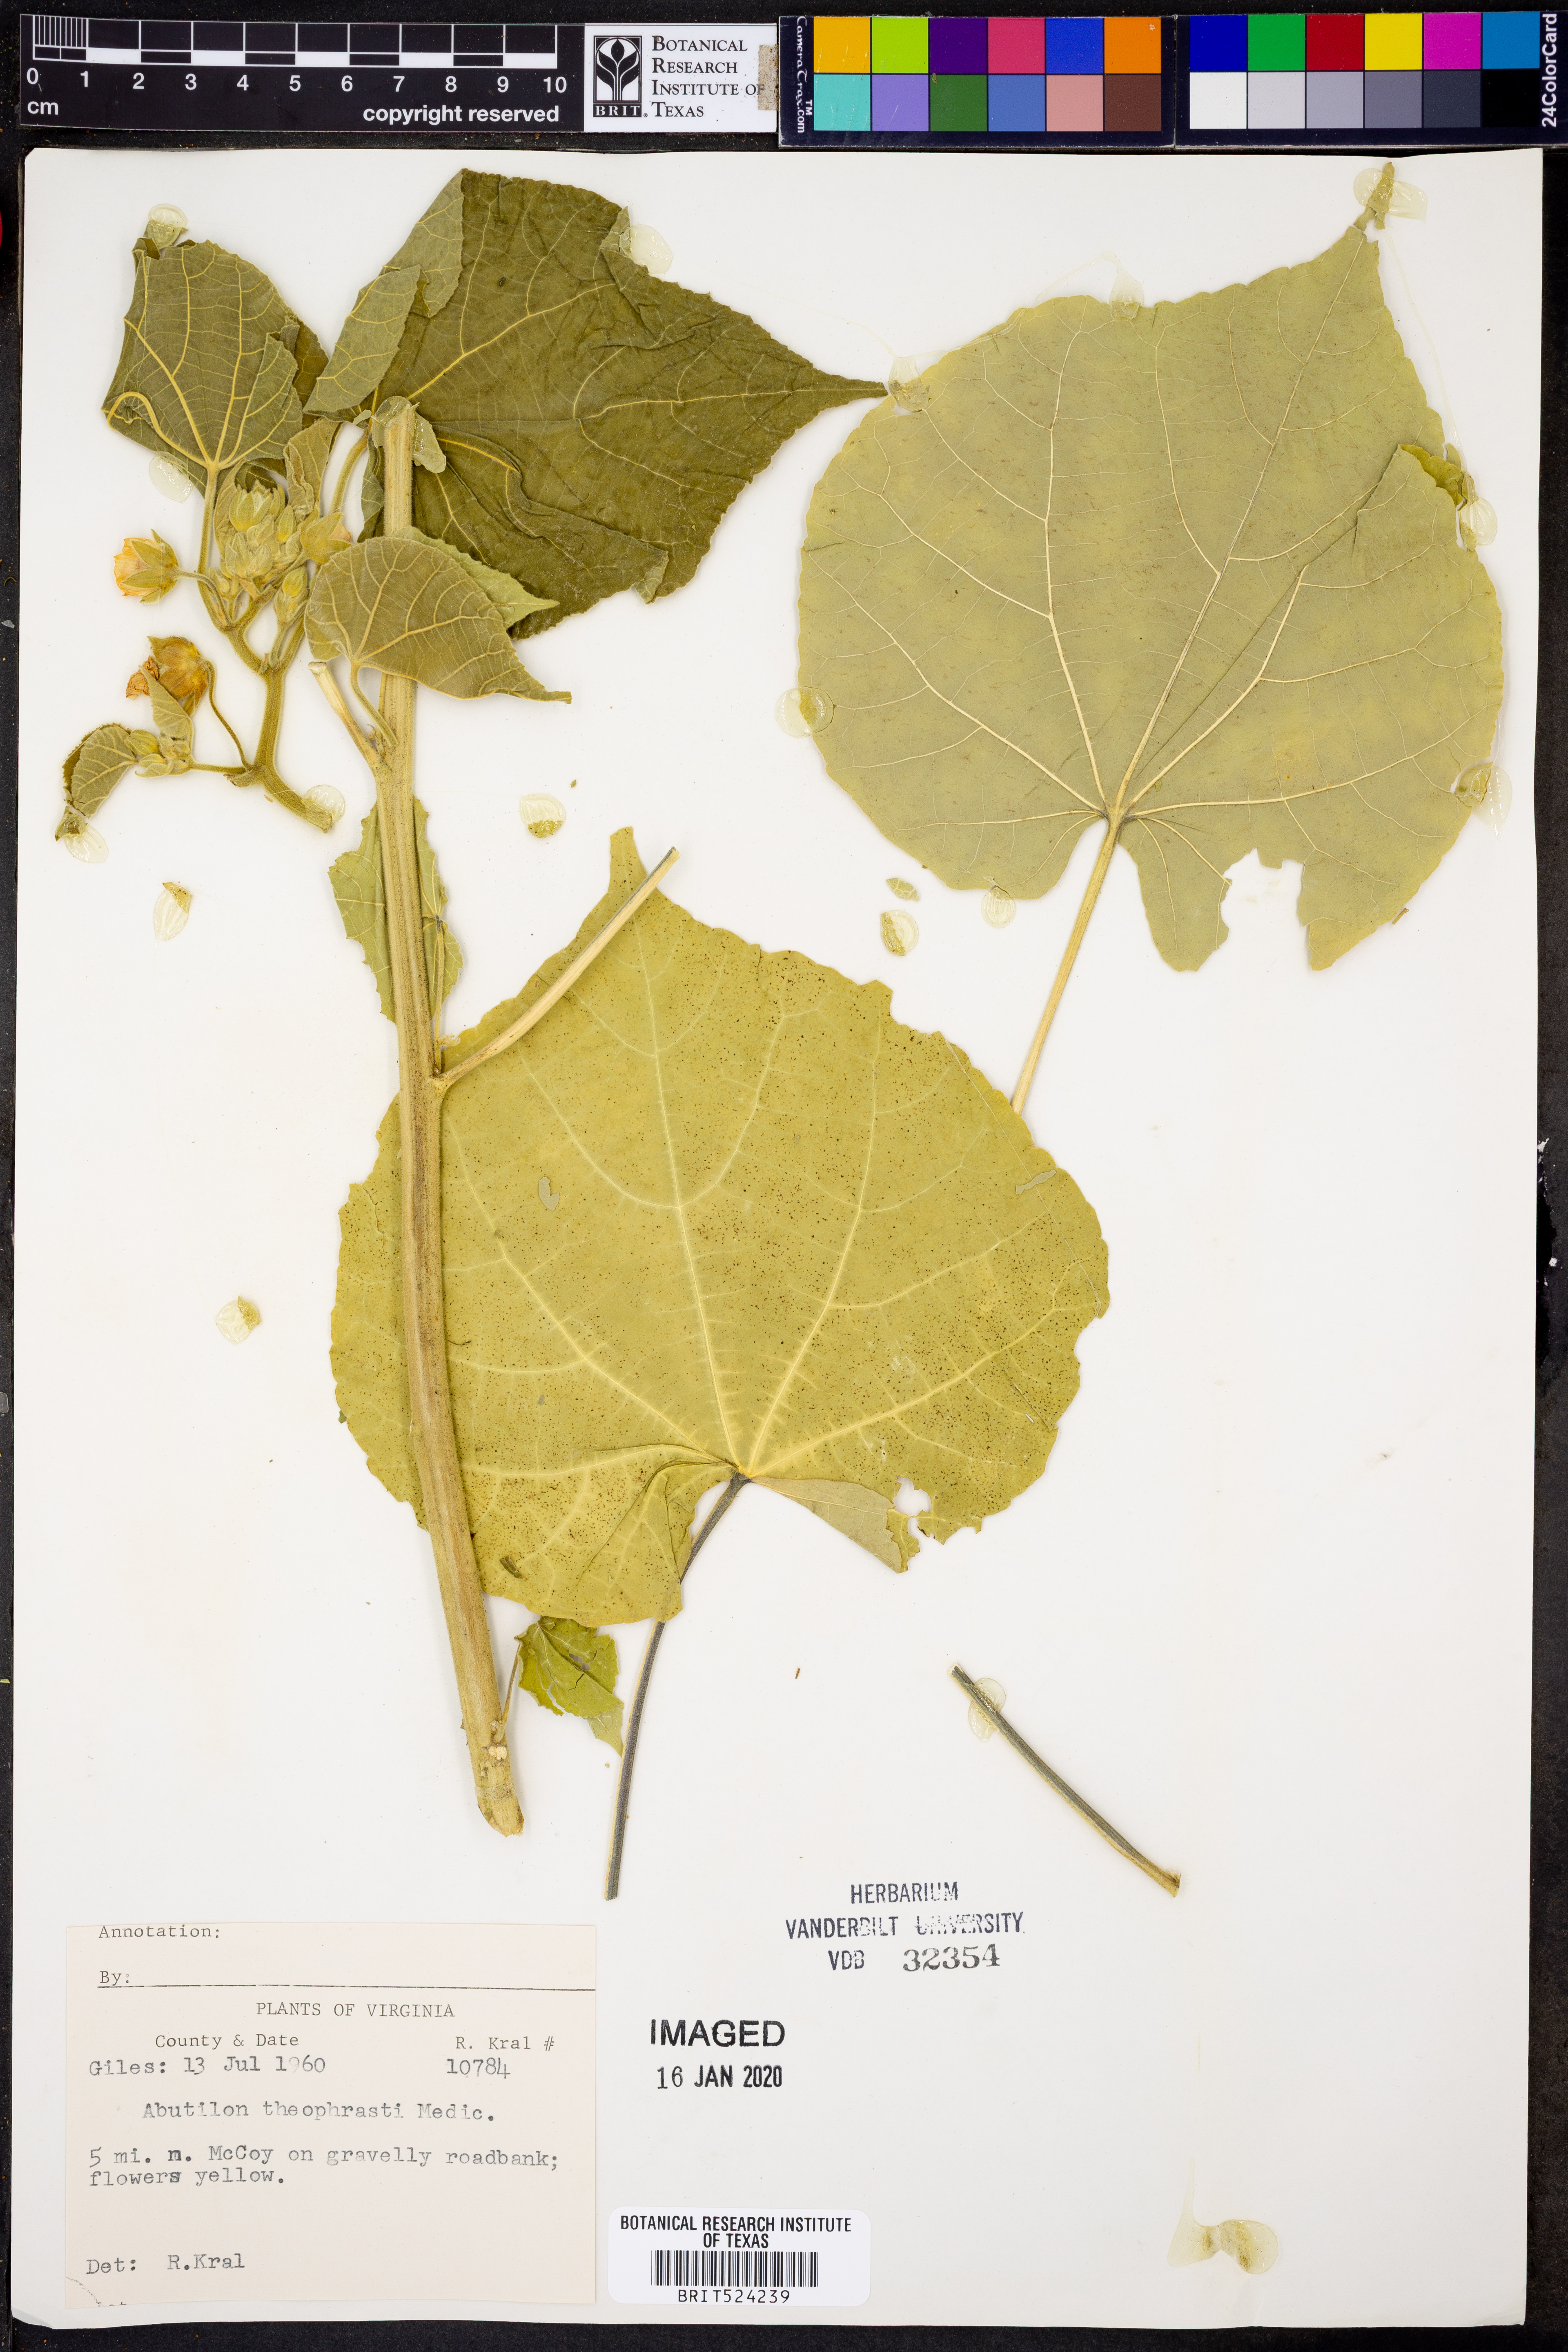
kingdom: Plantae
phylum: Tracheophyta
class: Magnoliopsida
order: Malvales
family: Malvaceae
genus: Abutilon
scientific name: Abutilon theophrasti
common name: Velvetleaf
